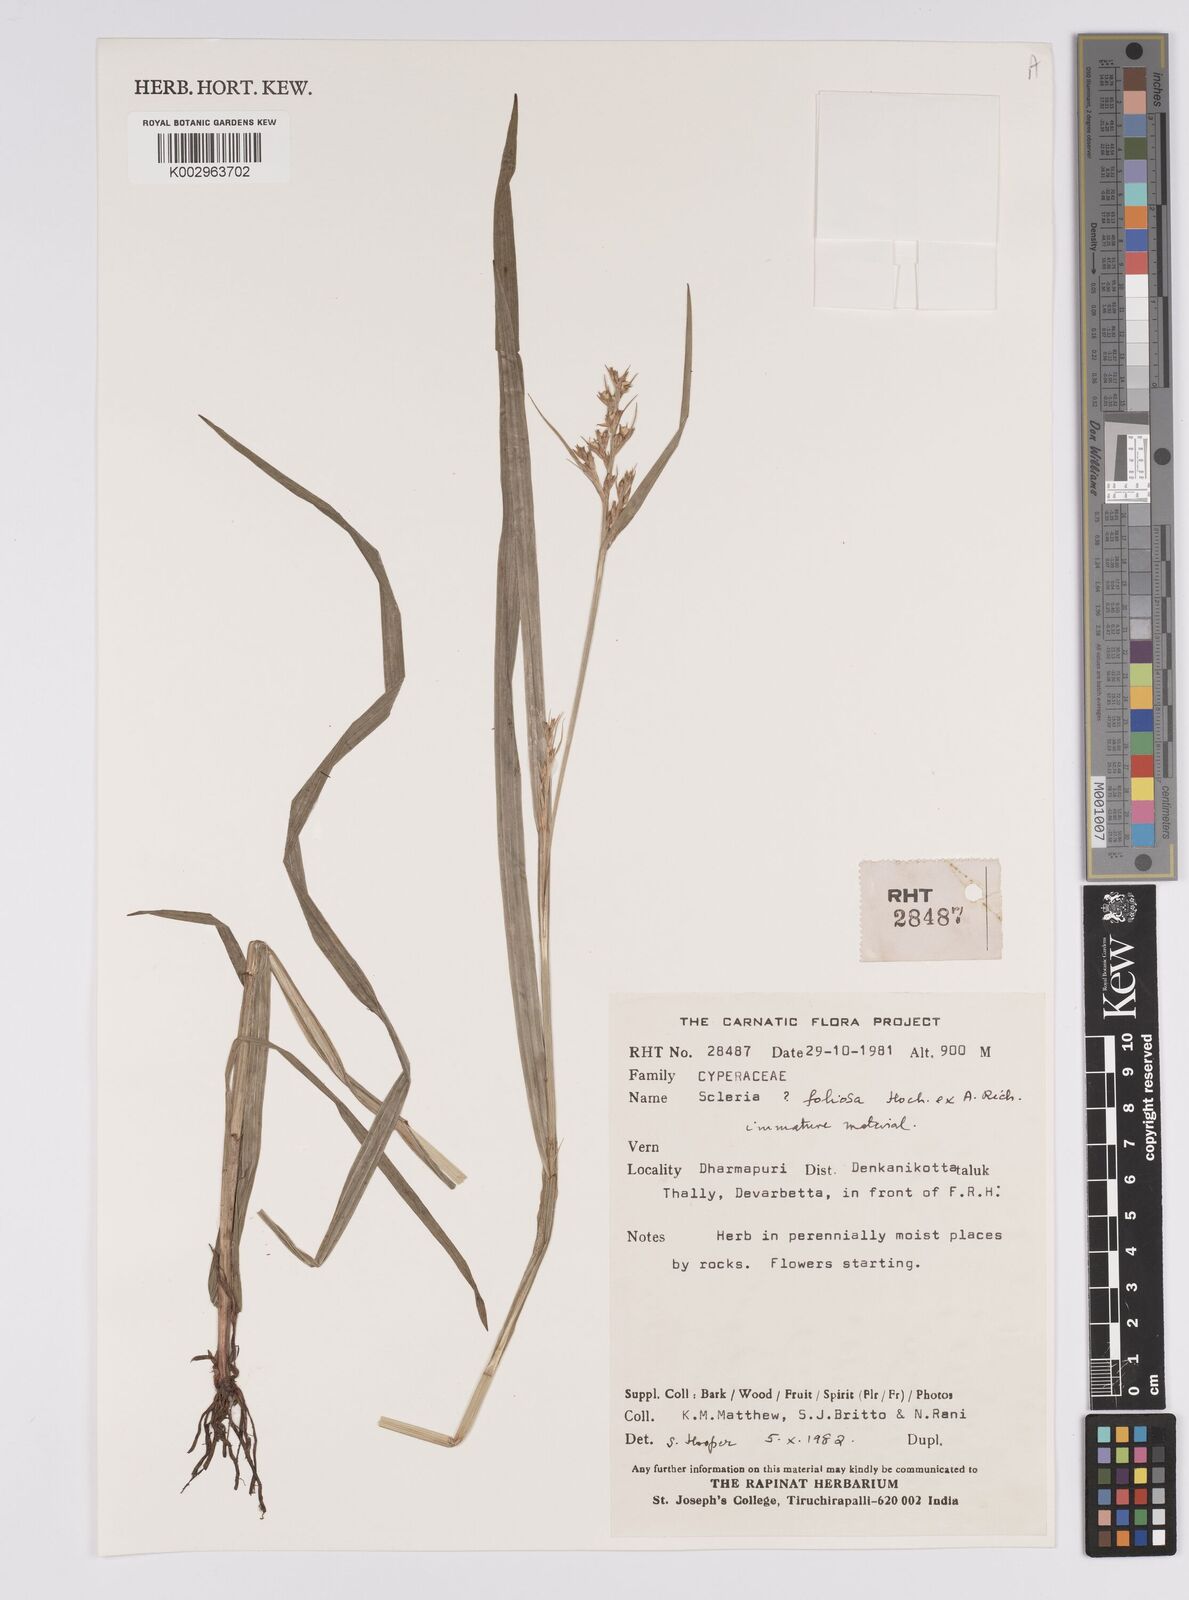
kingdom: Plantae
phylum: Tracheophyta
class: Liliopsida
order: Poales
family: Cyperaceae
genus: Scleria
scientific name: Scleria foliosa
